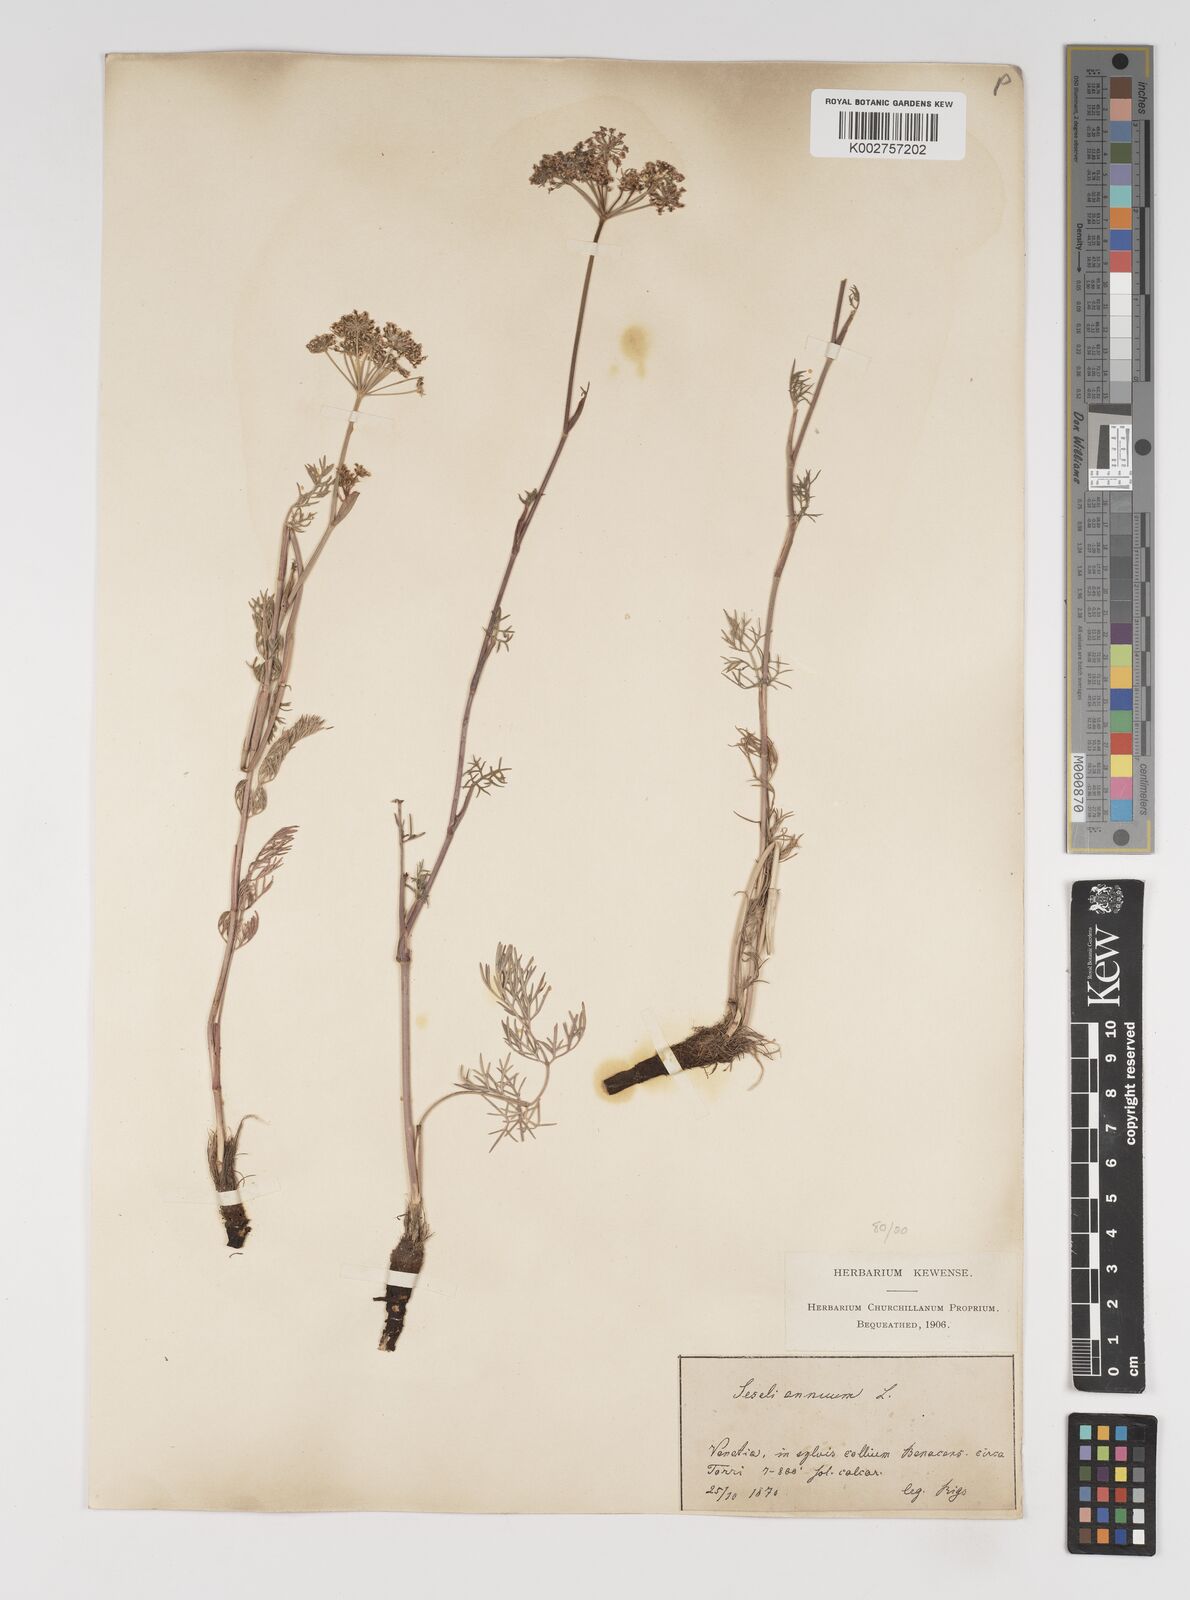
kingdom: Plantae
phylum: Tracheophyta
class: Magnoliopsida
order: Apiales
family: Apiaceae
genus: Seseli
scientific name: Seseli annuum
